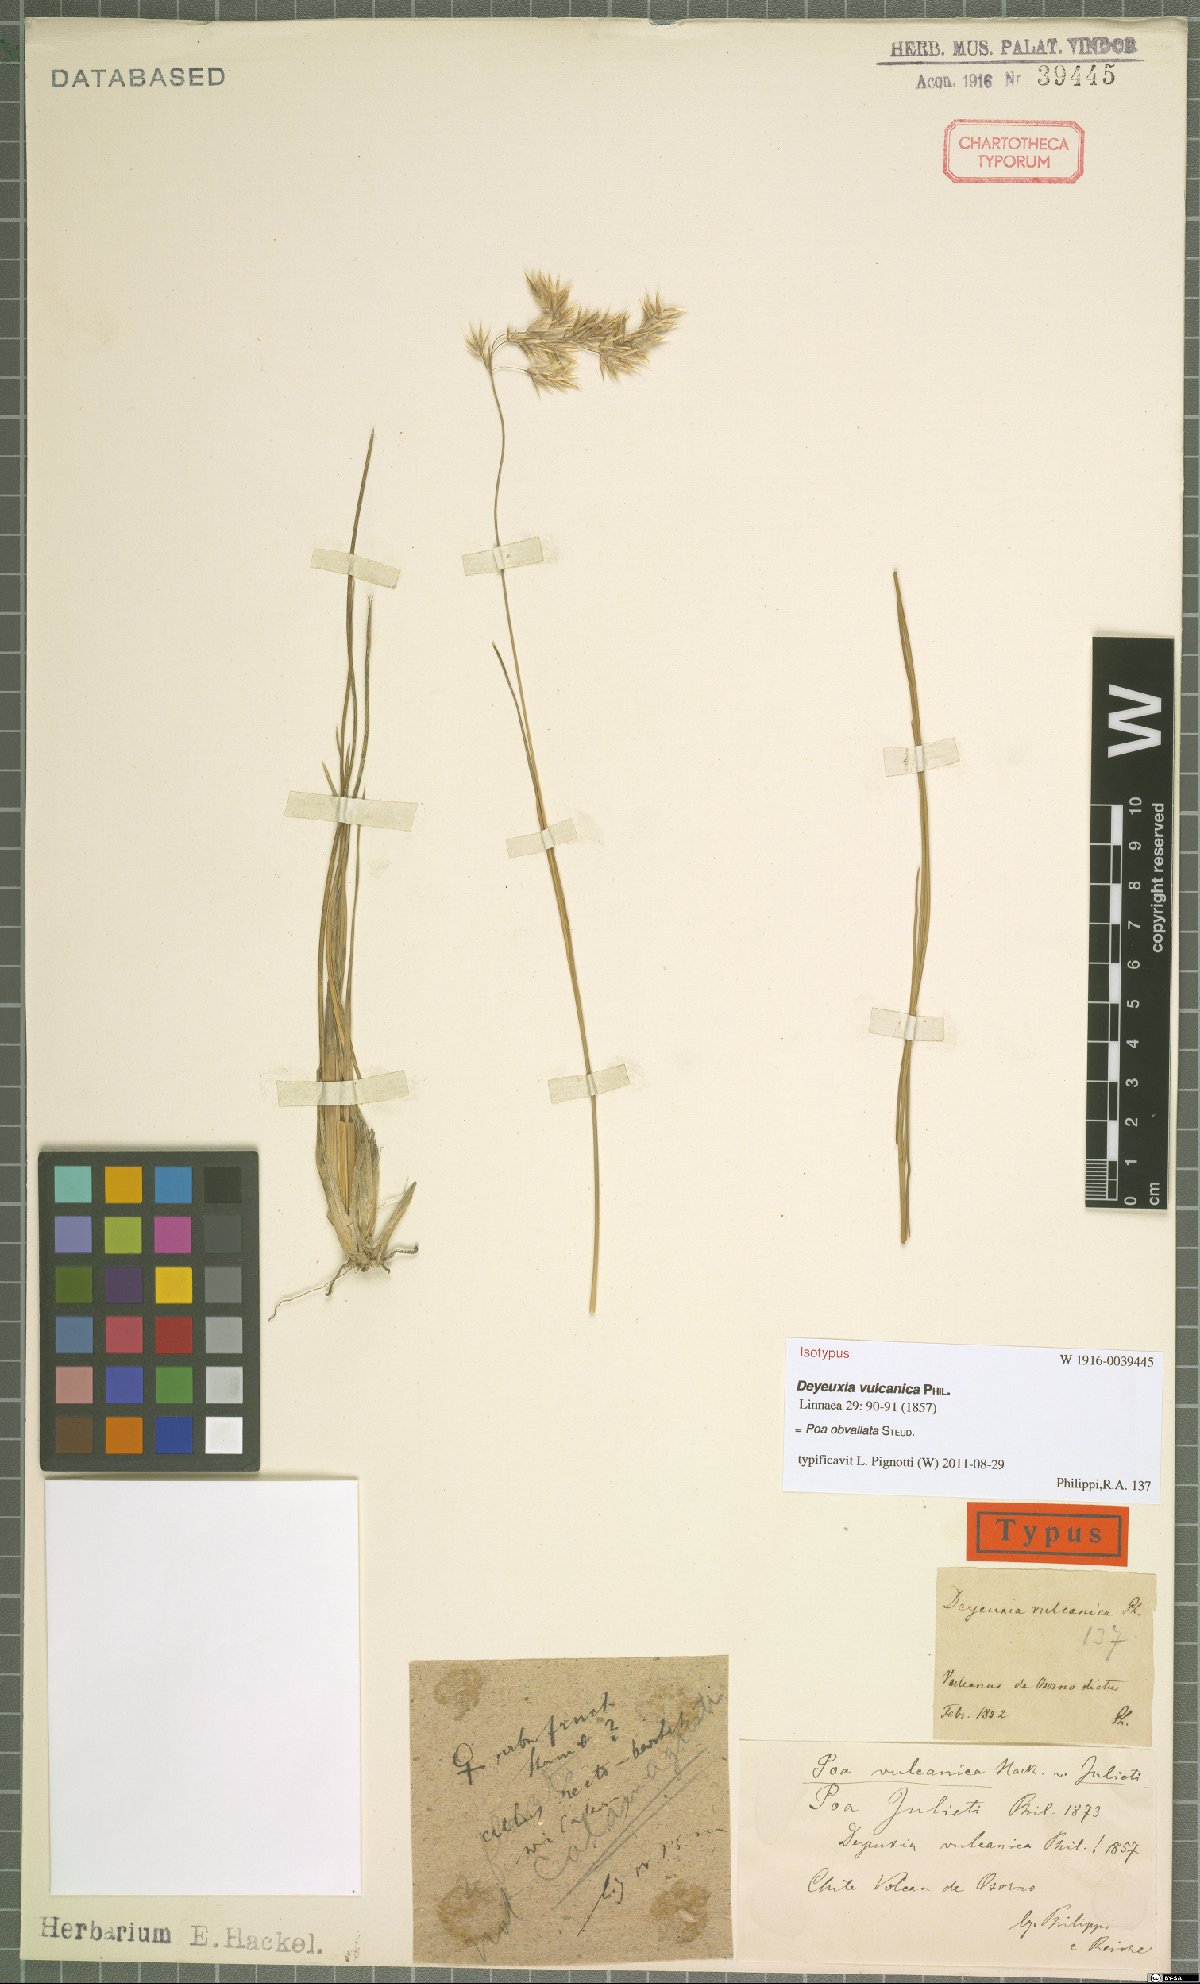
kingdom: Plantae
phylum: Tracheophyta
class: Liliopsida
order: Poales
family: Poaceae
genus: Poa
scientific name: Poa obvallata
